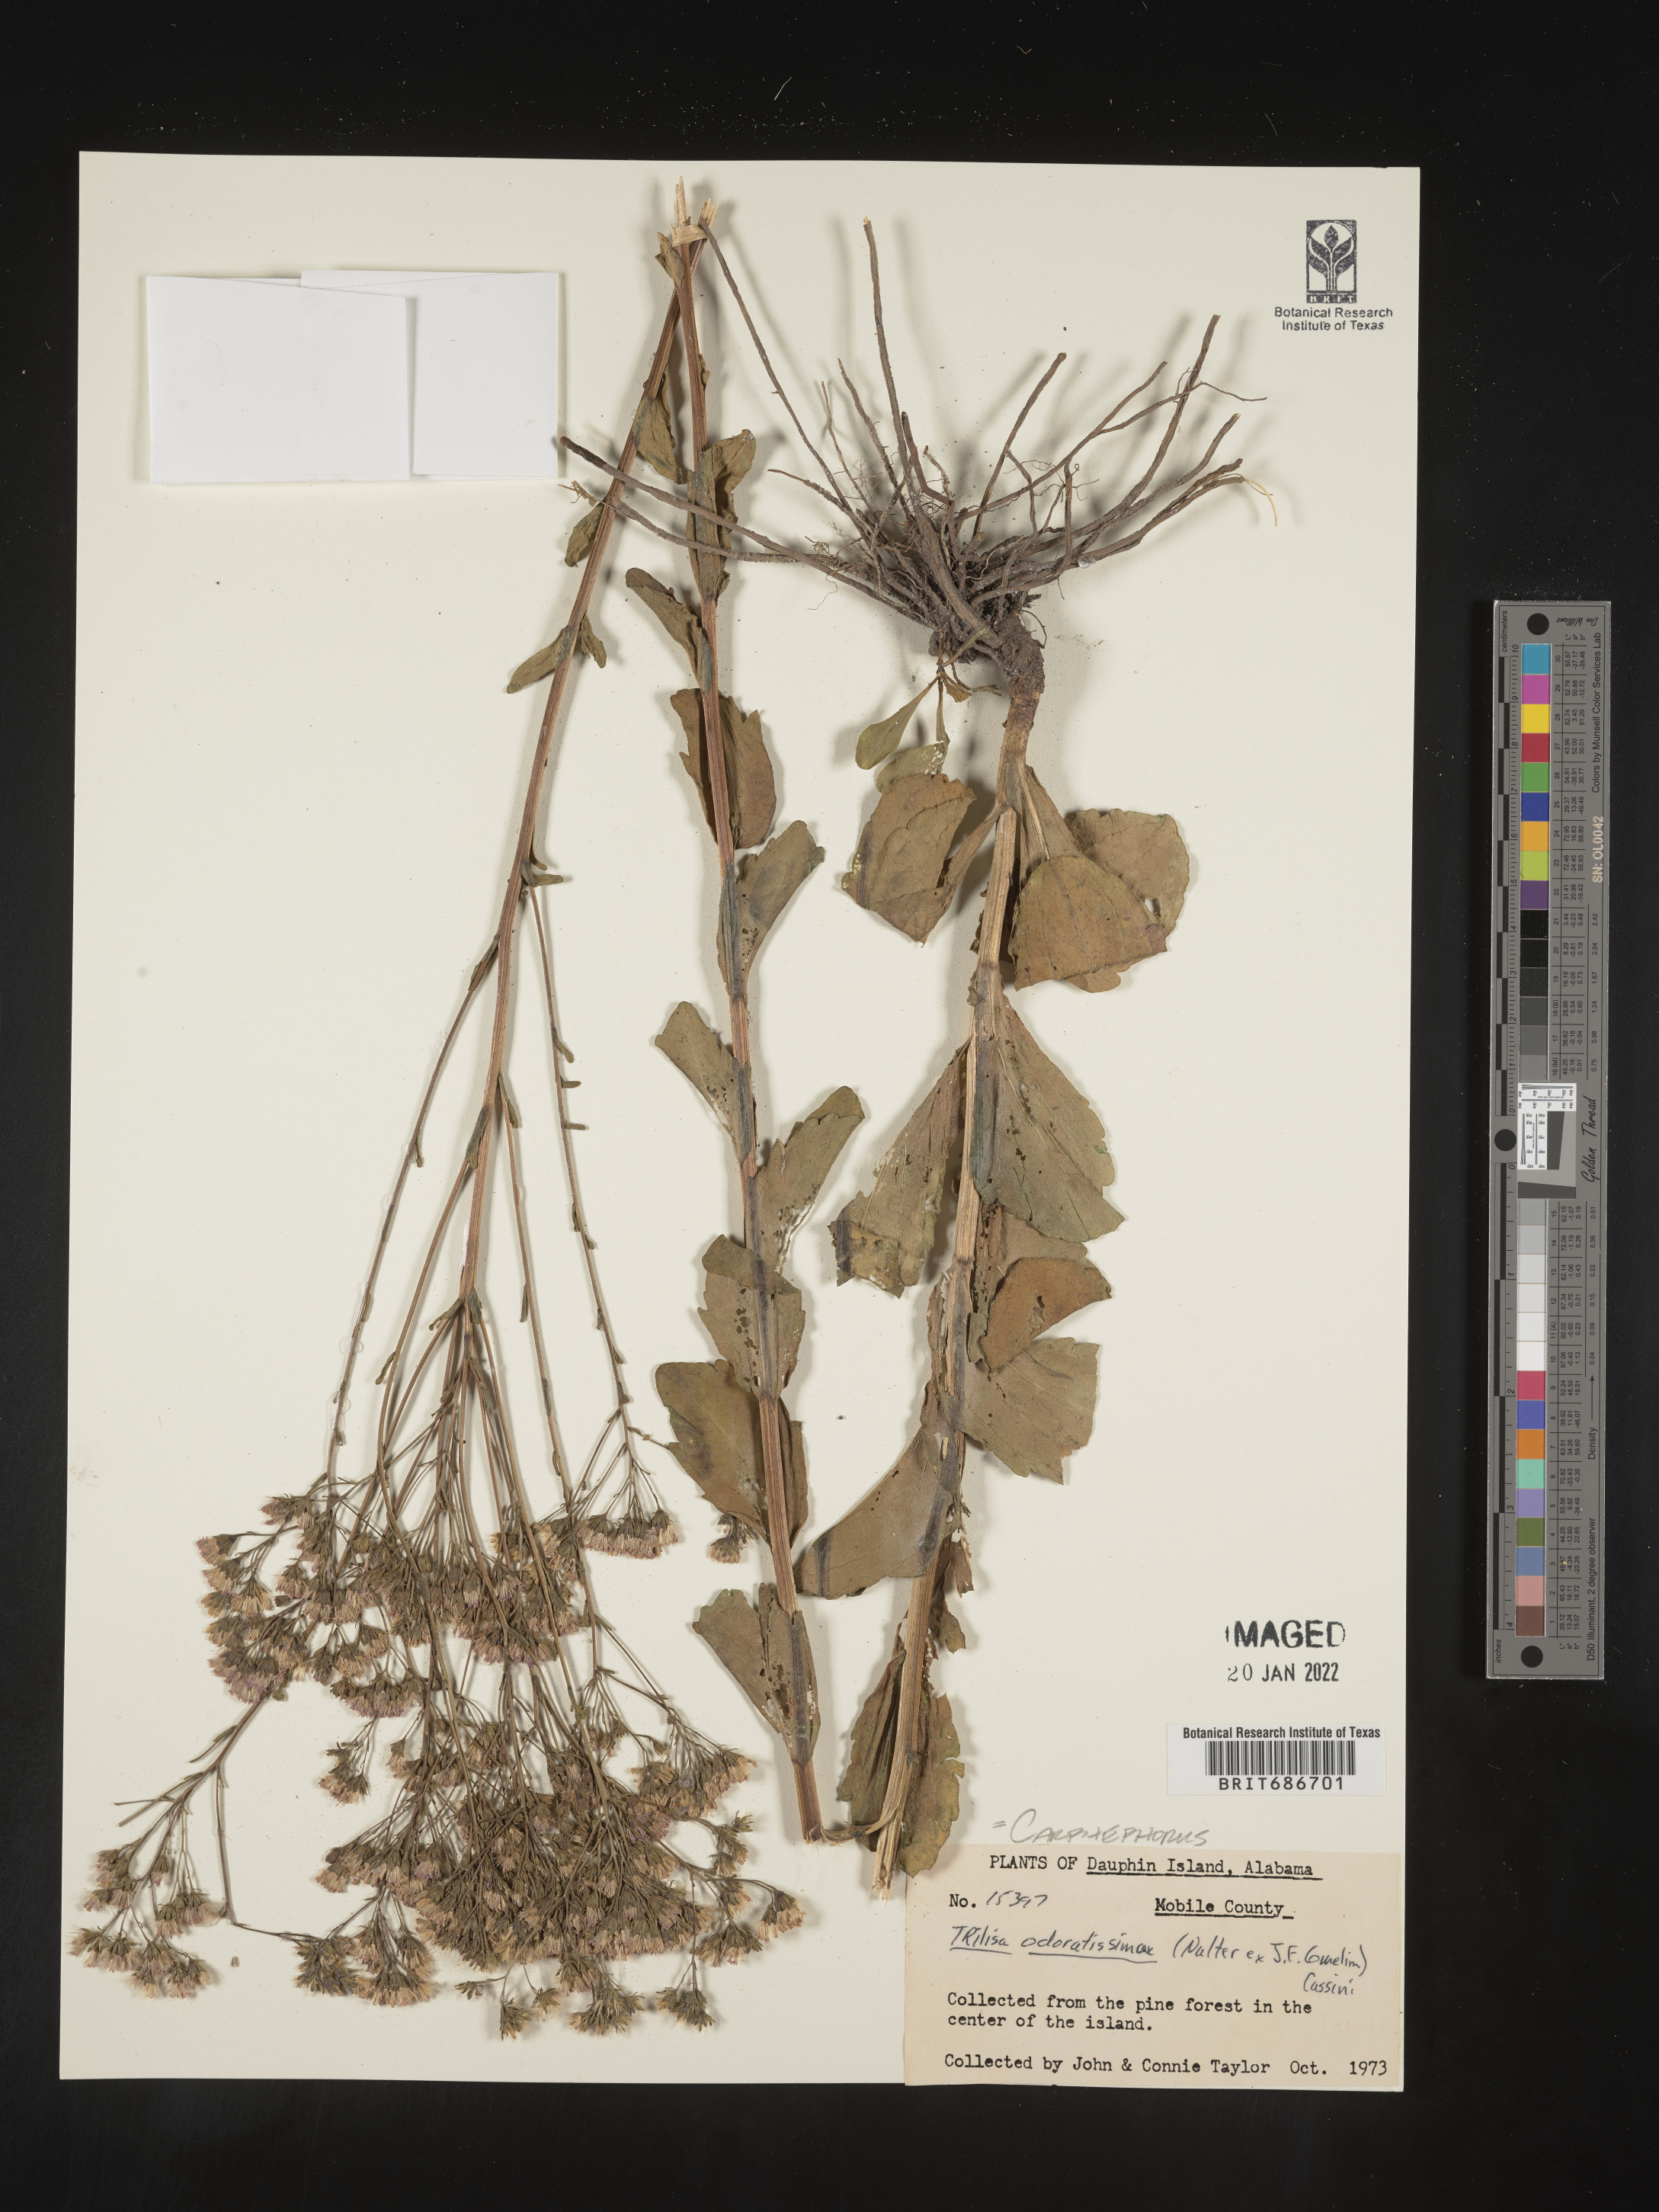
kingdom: Plantae
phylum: Tracheophyta
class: Magnoliopsida
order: Asterales
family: Asteraceae
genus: Carphephorus
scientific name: Carphephorus odoratissimus
